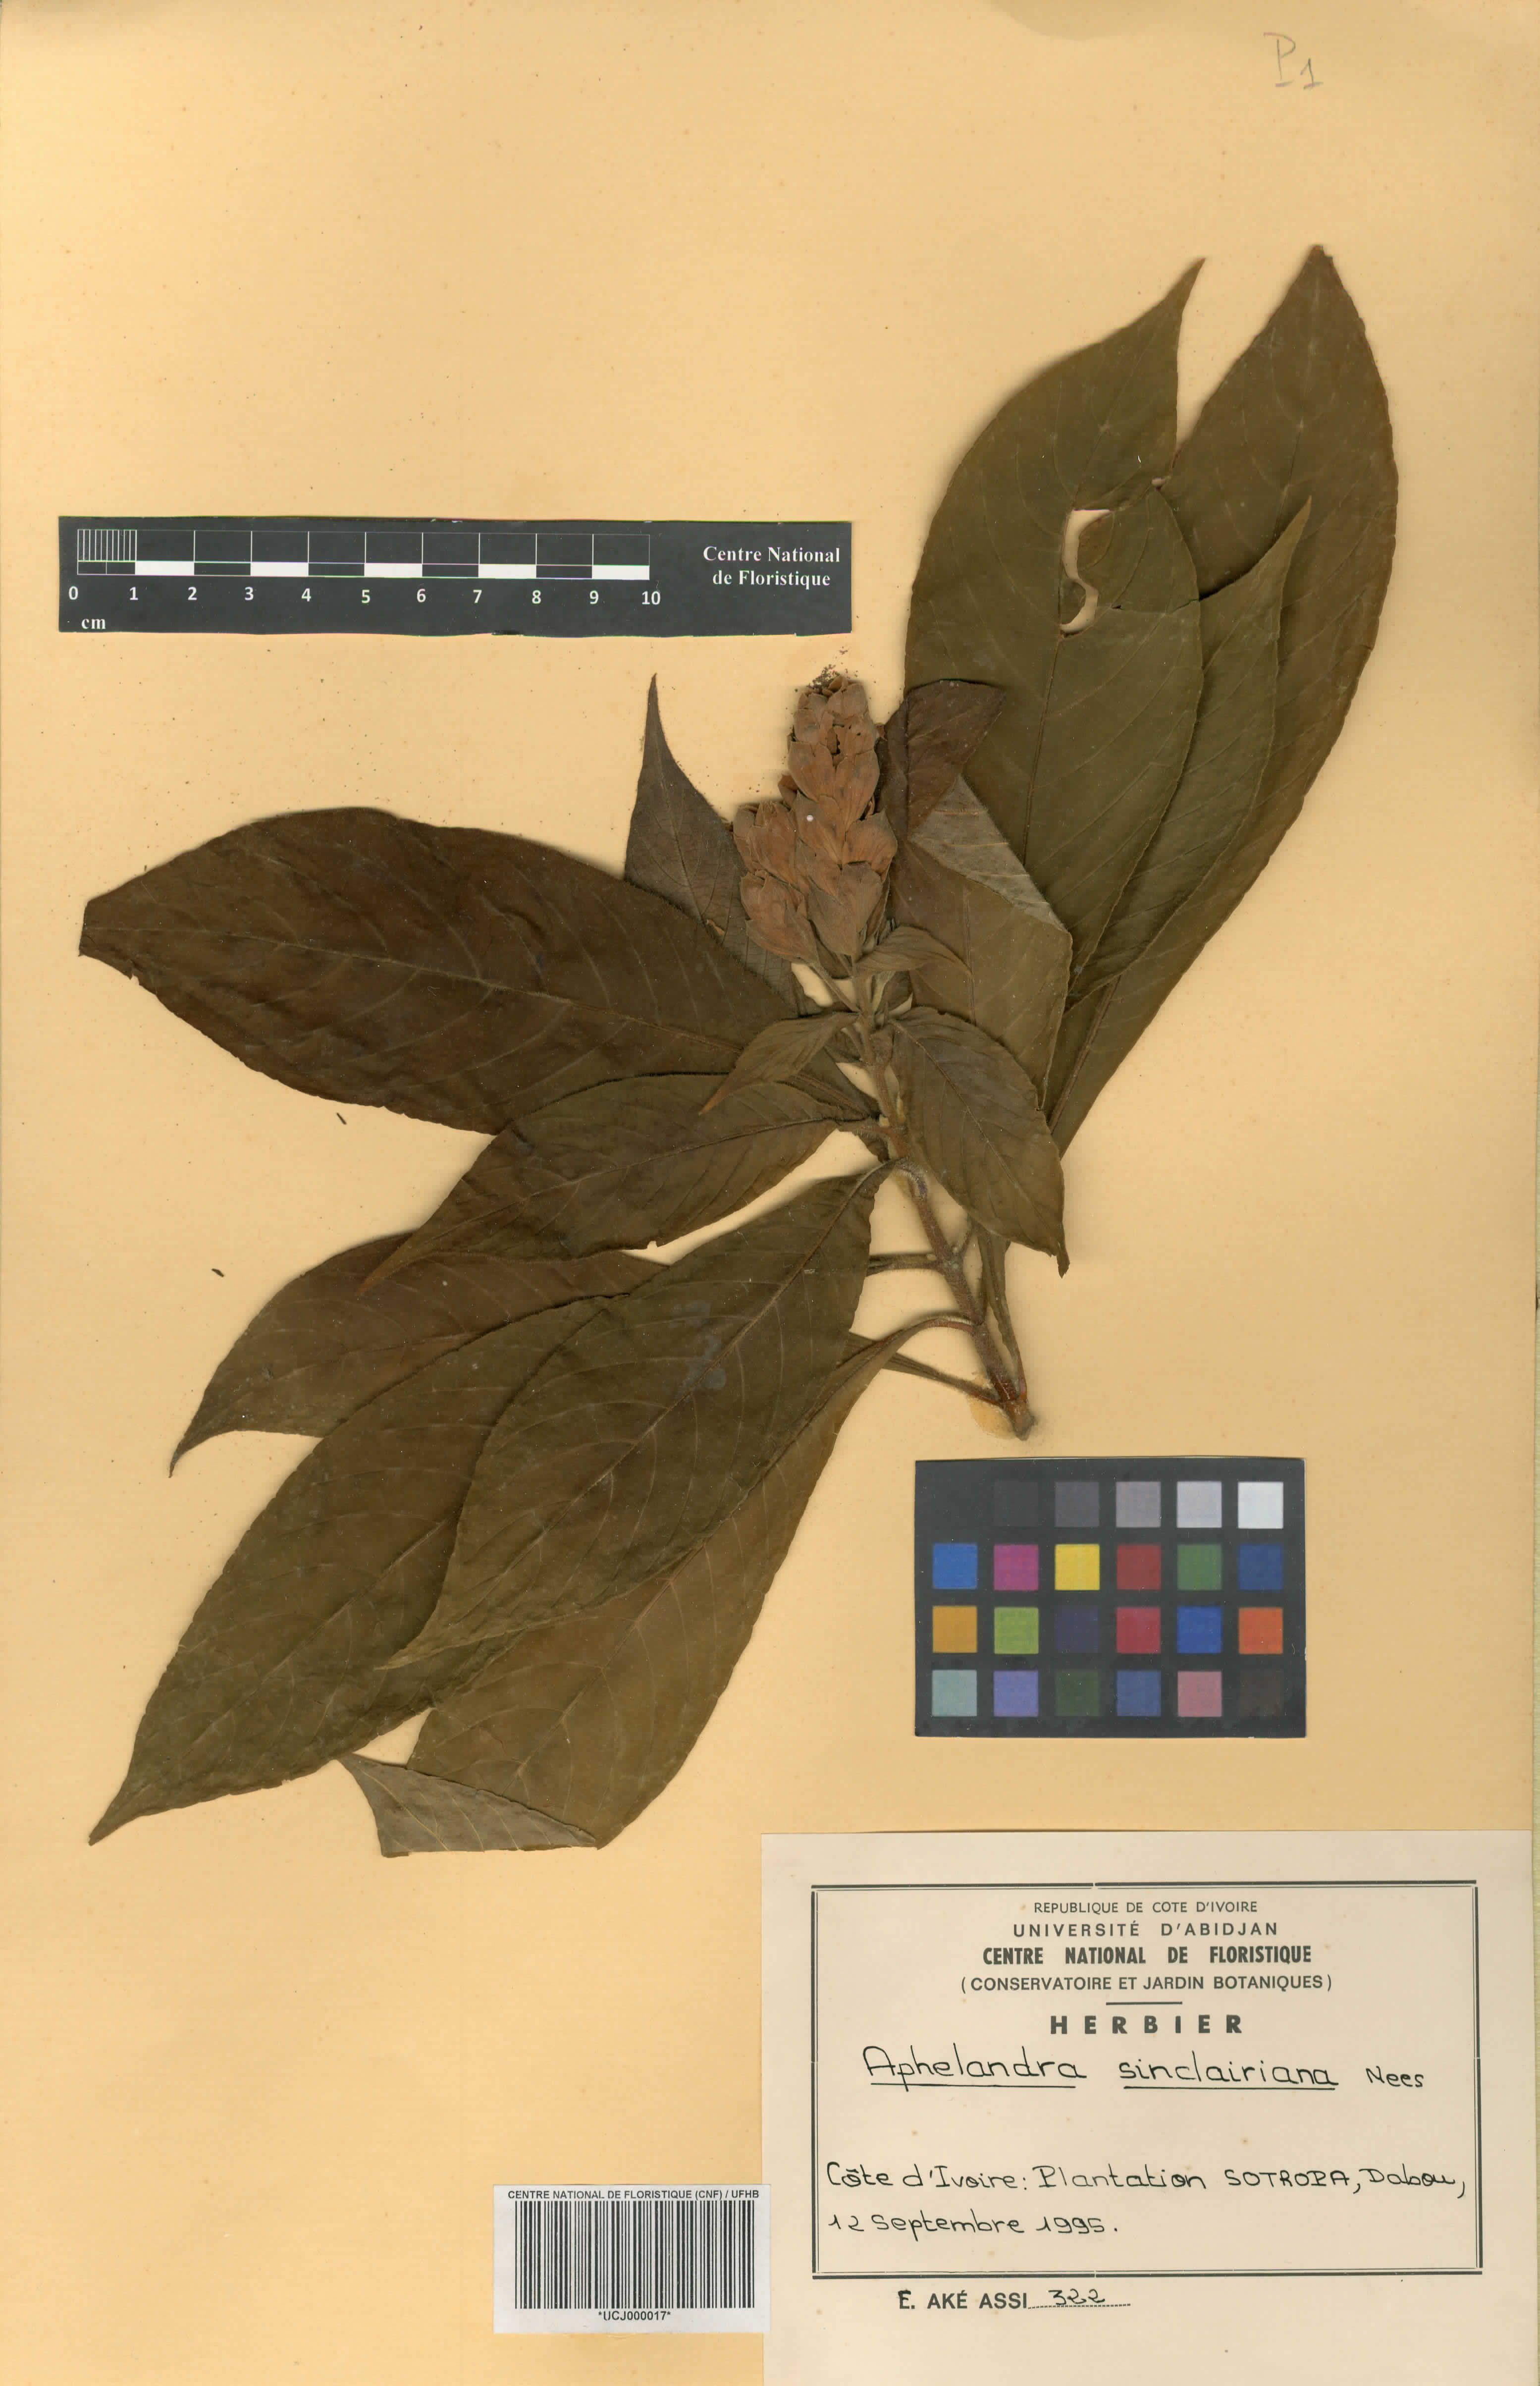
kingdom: Plantae
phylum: Tracheophyta
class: Magnoliopsida
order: Lamiales
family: Acanthaceae
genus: Aphelandra
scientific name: Aphelandra sinclairiana
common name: Coral aphelandra
